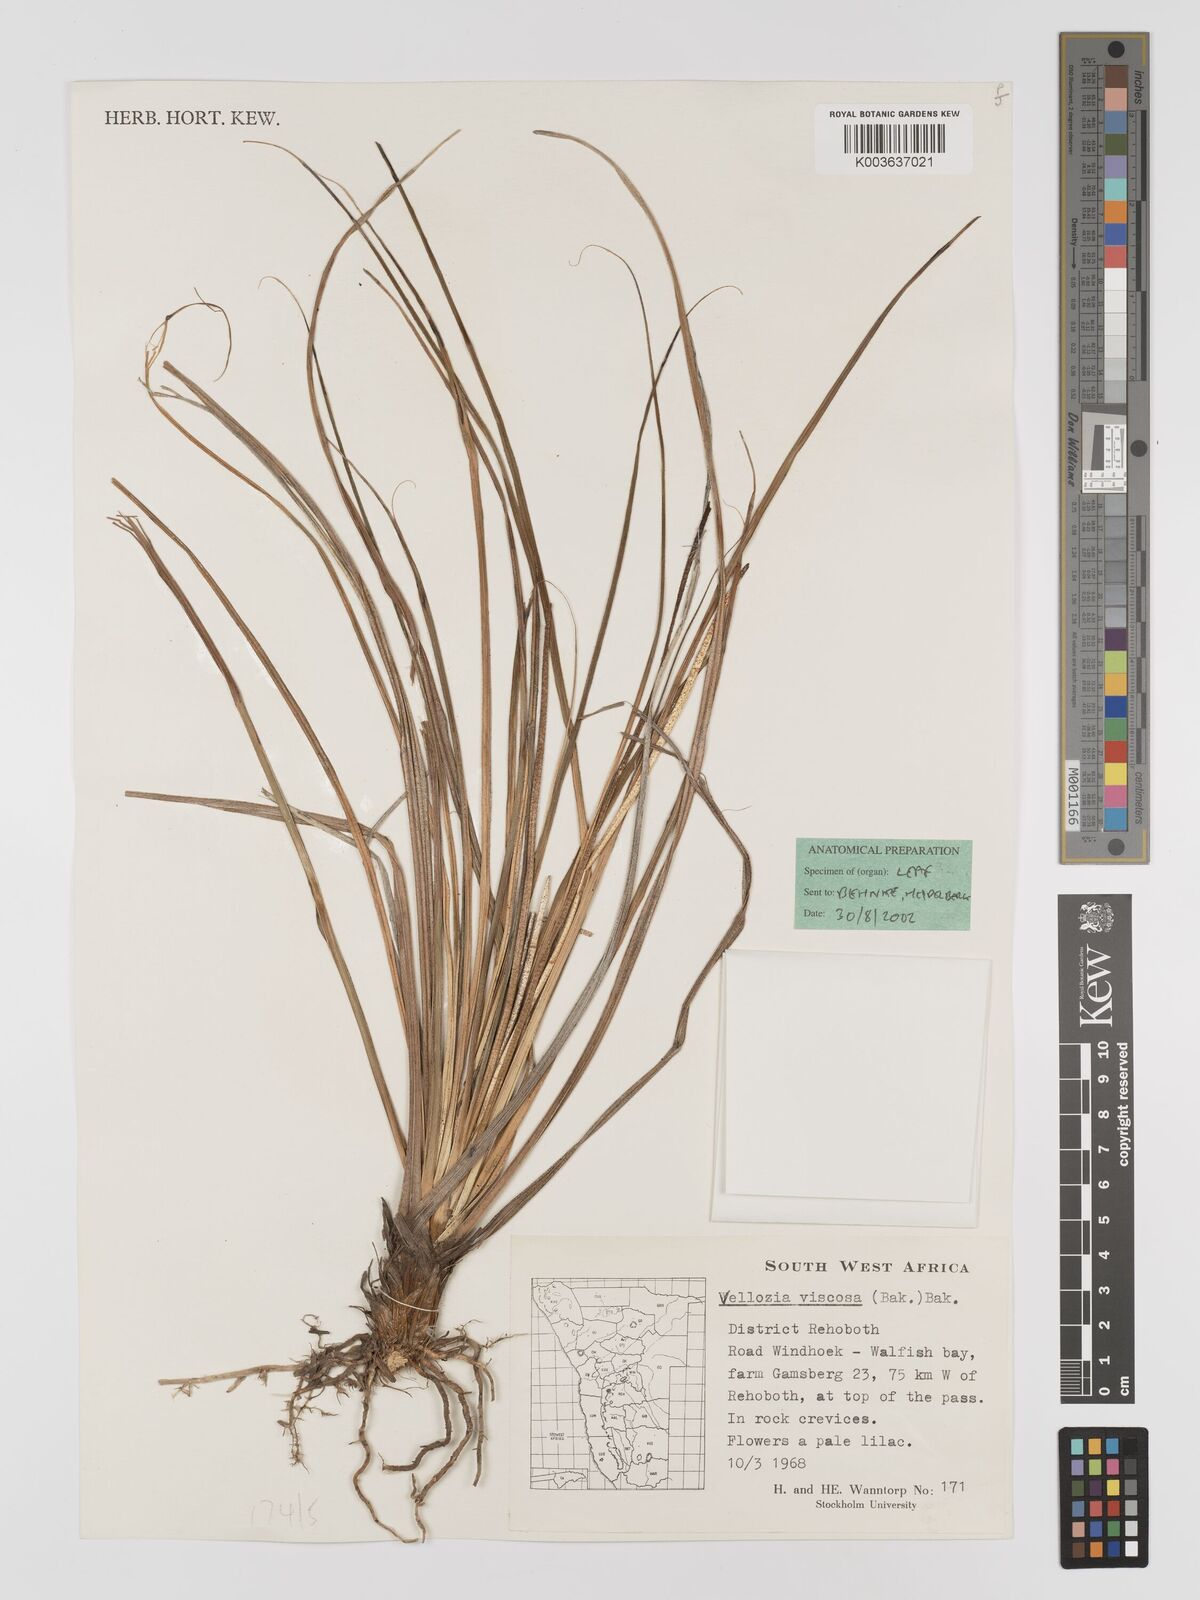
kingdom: Plantae
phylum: Tracheophyta
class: Liliopsida
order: Pandanales
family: Velloziaceae
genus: Xerophyta
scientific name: Xerophyta viscosa
